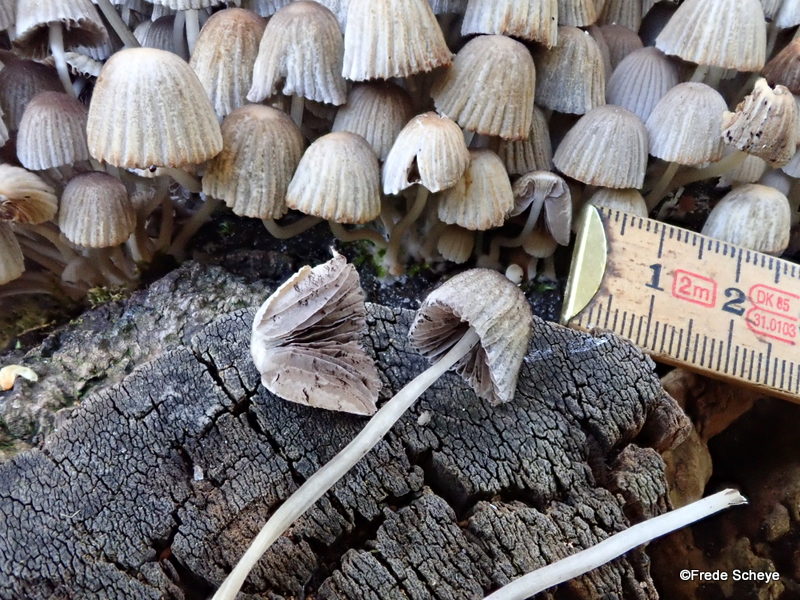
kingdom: Fungi
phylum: Basidiomycota
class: Agaricomycetes
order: Agaricales
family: Psathyrellaceae
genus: Coprinellus
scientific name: Coprinellus disseminatus
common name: bredsået blækhat
